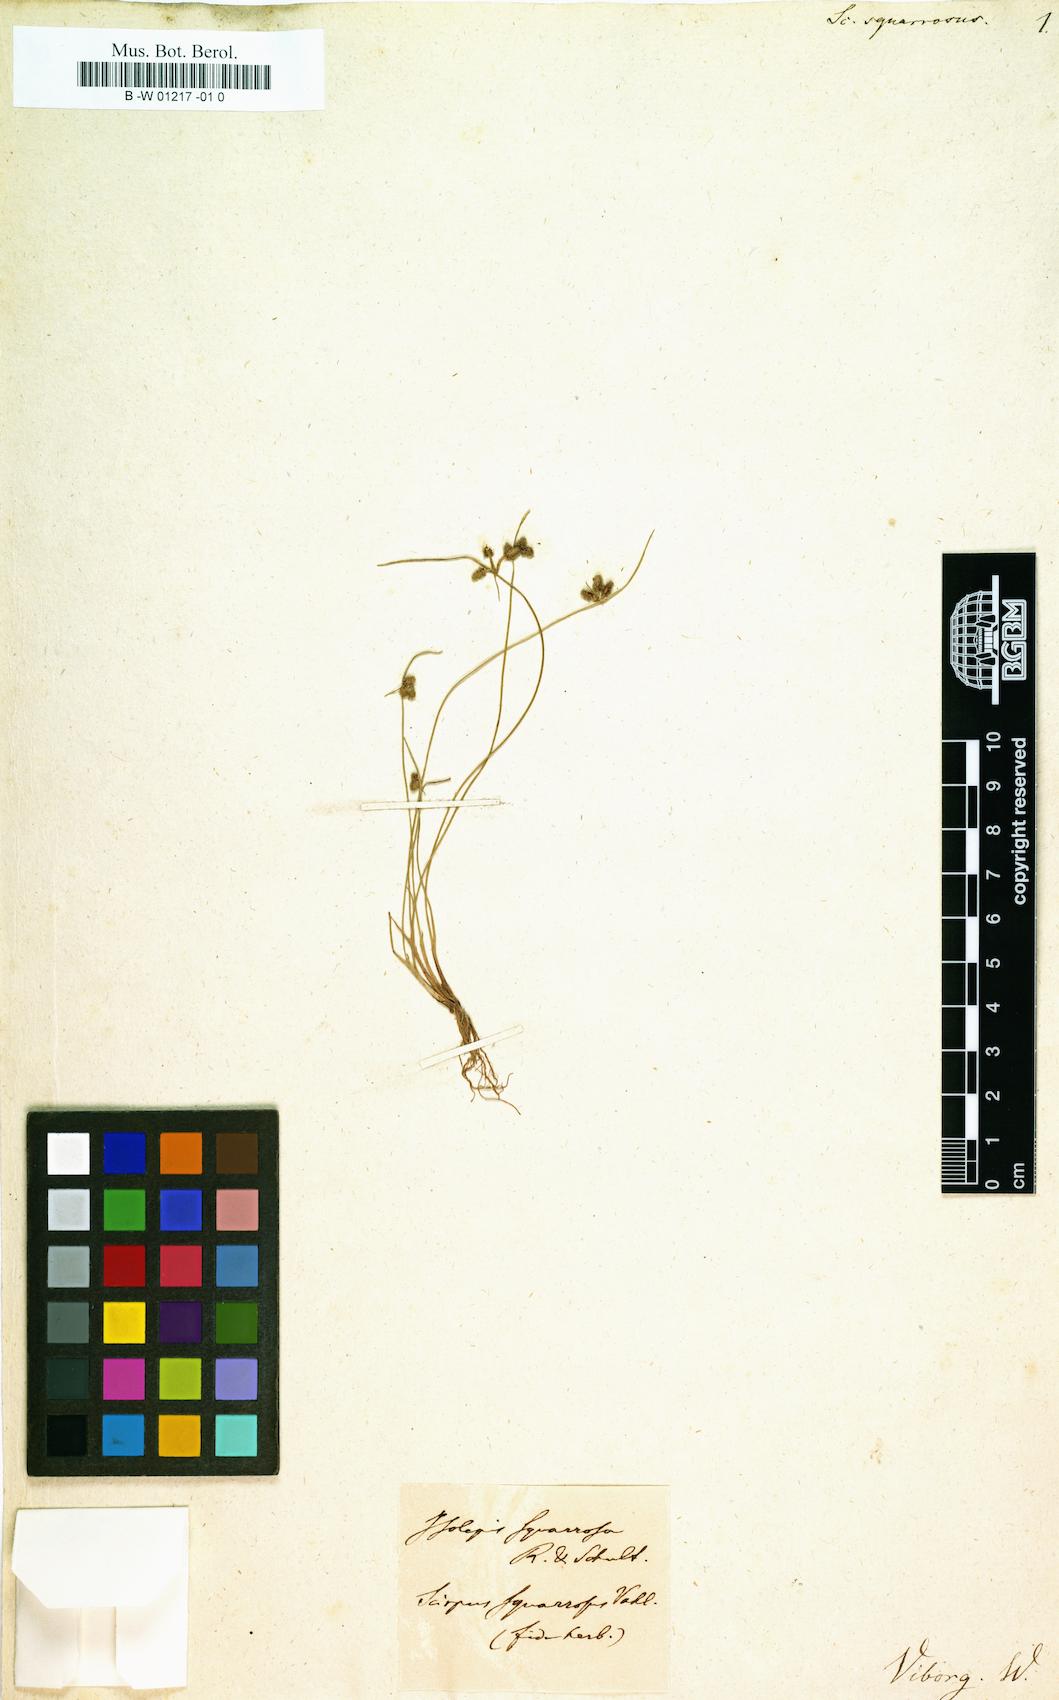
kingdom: Plantae
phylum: Tracheophyta
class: Liliopsida
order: Poales
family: Cyperaceae
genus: Cyperus
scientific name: Cyperus neochinensis
